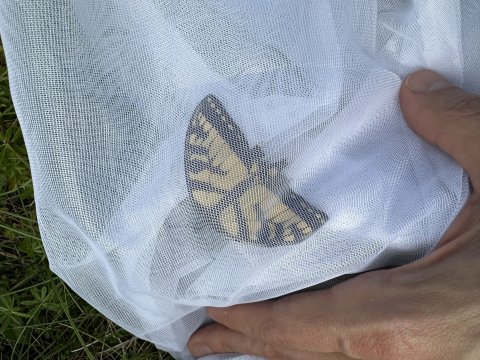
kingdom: Animalia
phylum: Arthropoda
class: Insecta
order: Lepidoptera
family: Papilionidae
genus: Pterourus
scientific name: Pterourus canadensis
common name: Canadian Tiger Swallowtail
